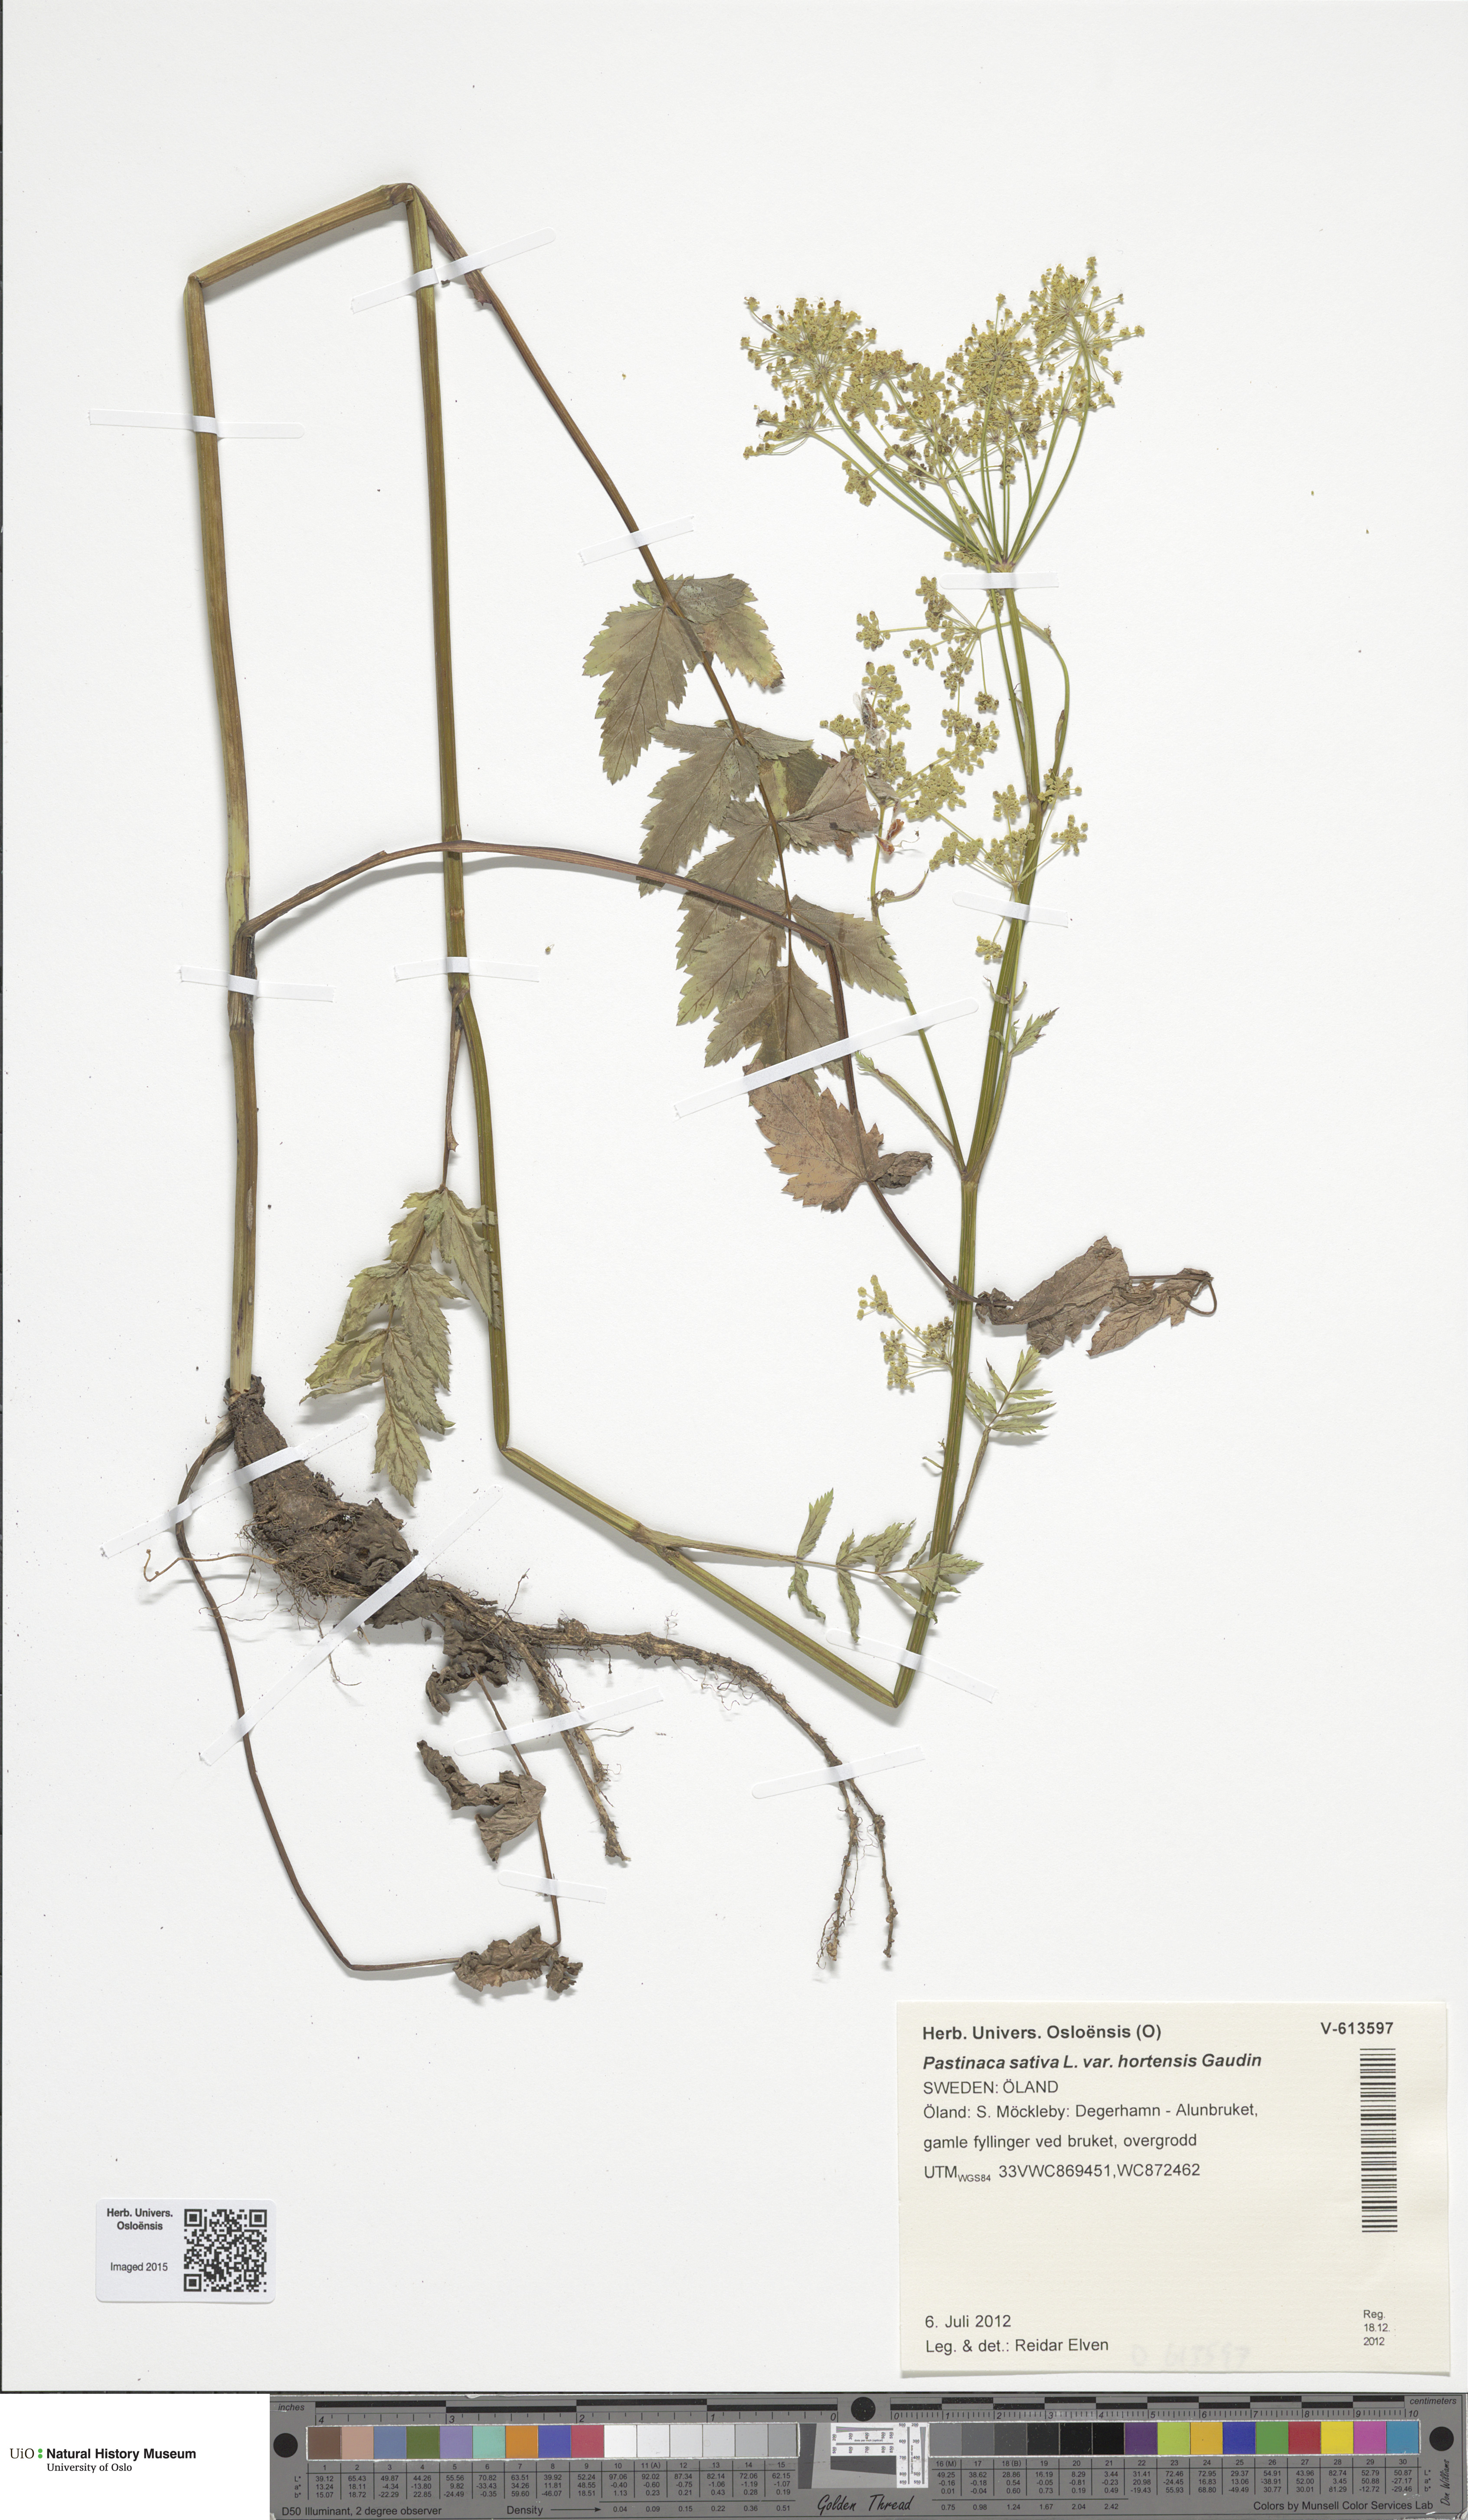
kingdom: Plantae
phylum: Tracheophyta
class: Magnoliopsida
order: Apiales
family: Apiaceae
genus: Pastinaca
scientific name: Pastinaca sativa
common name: Wild parsnip
